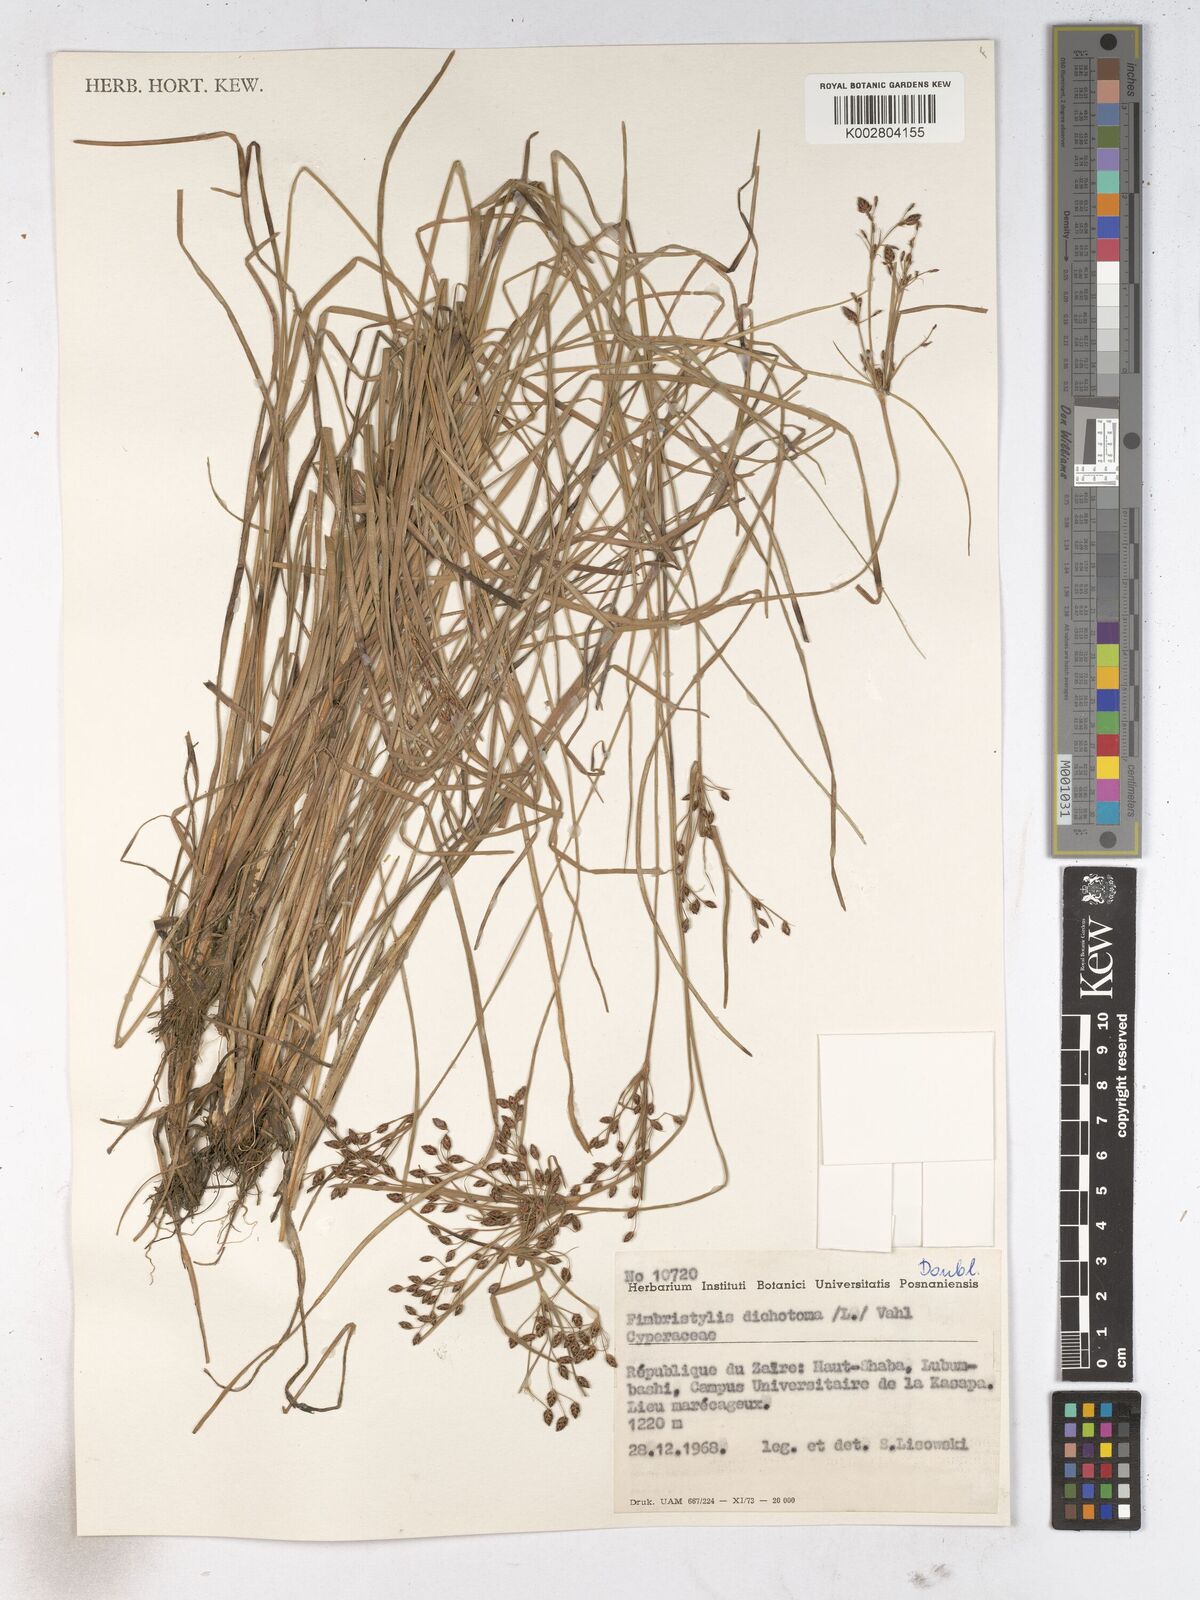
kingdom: Plantae
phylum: Tracheophyta
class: Liliopsida
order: Poales
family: Cyperaceae
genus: Fimbristylis
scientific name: Fimbristylis dichotoma
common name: Forked fimbry
